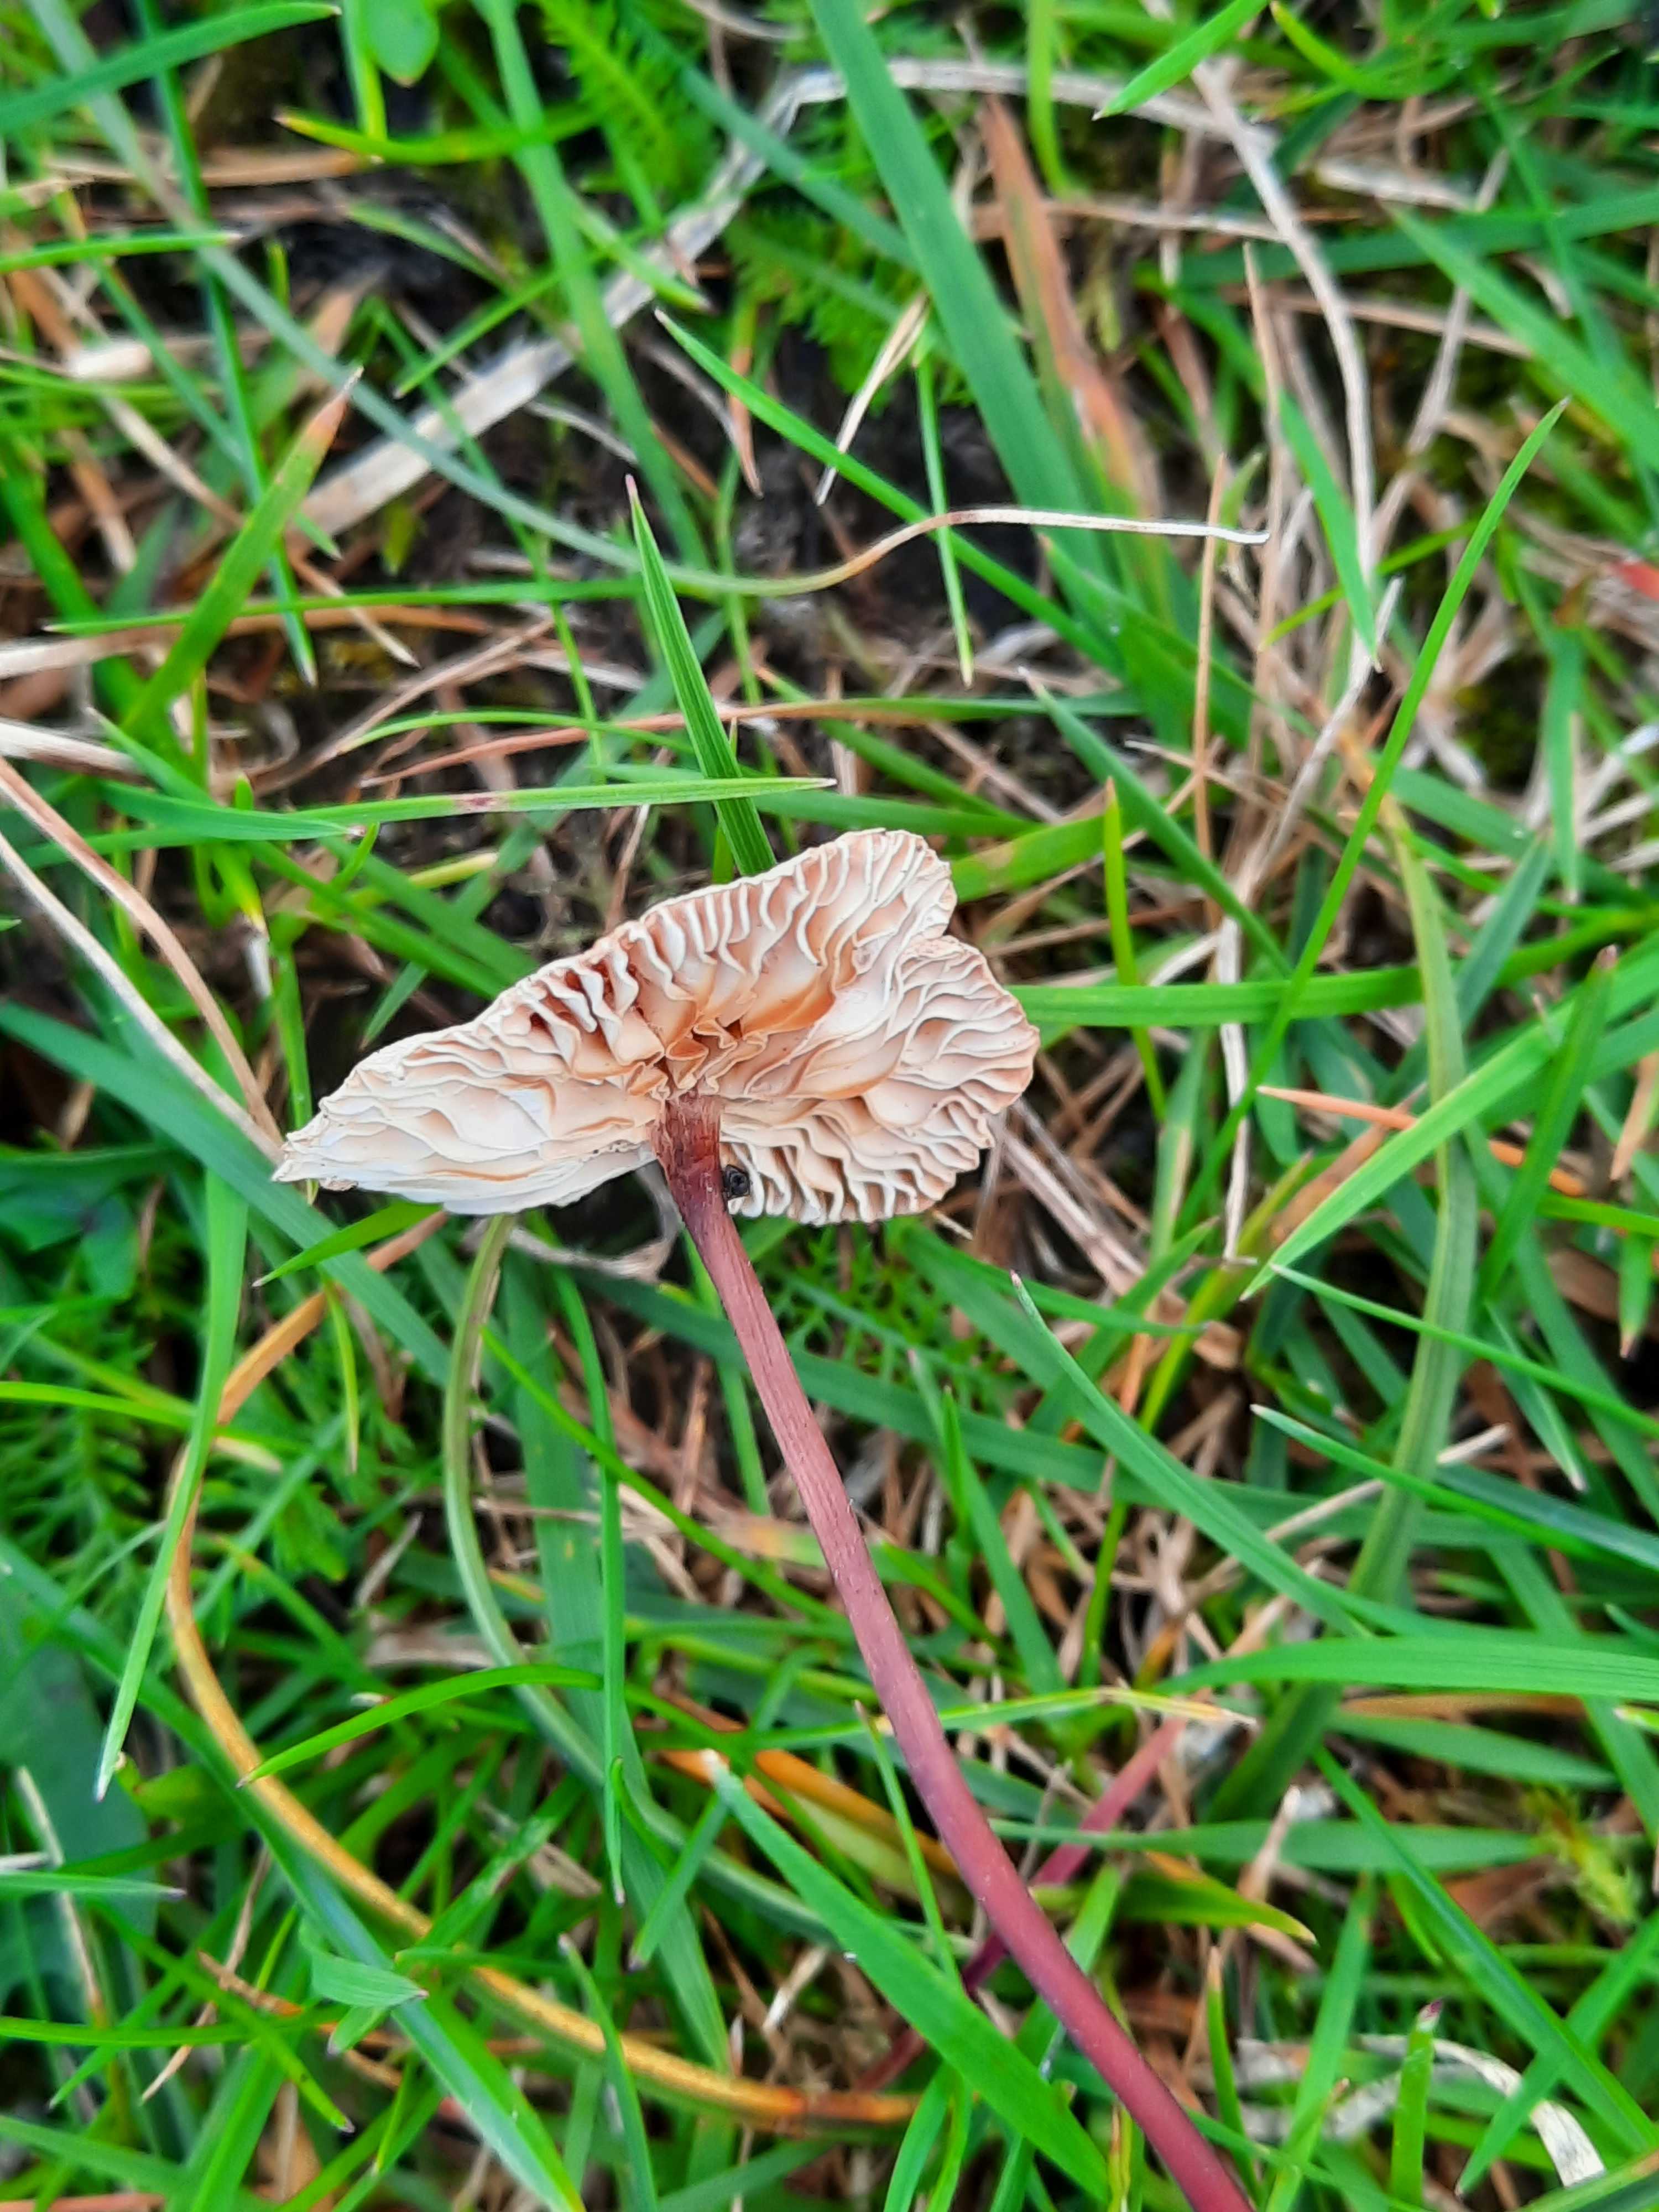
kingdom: Fungi
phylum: Basidiomycota
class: Agaricomycetes
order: Agaricales
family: Omphalotaceae
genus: Mycetinis
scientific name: Mycetinis scorodonius
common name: lille løghat
